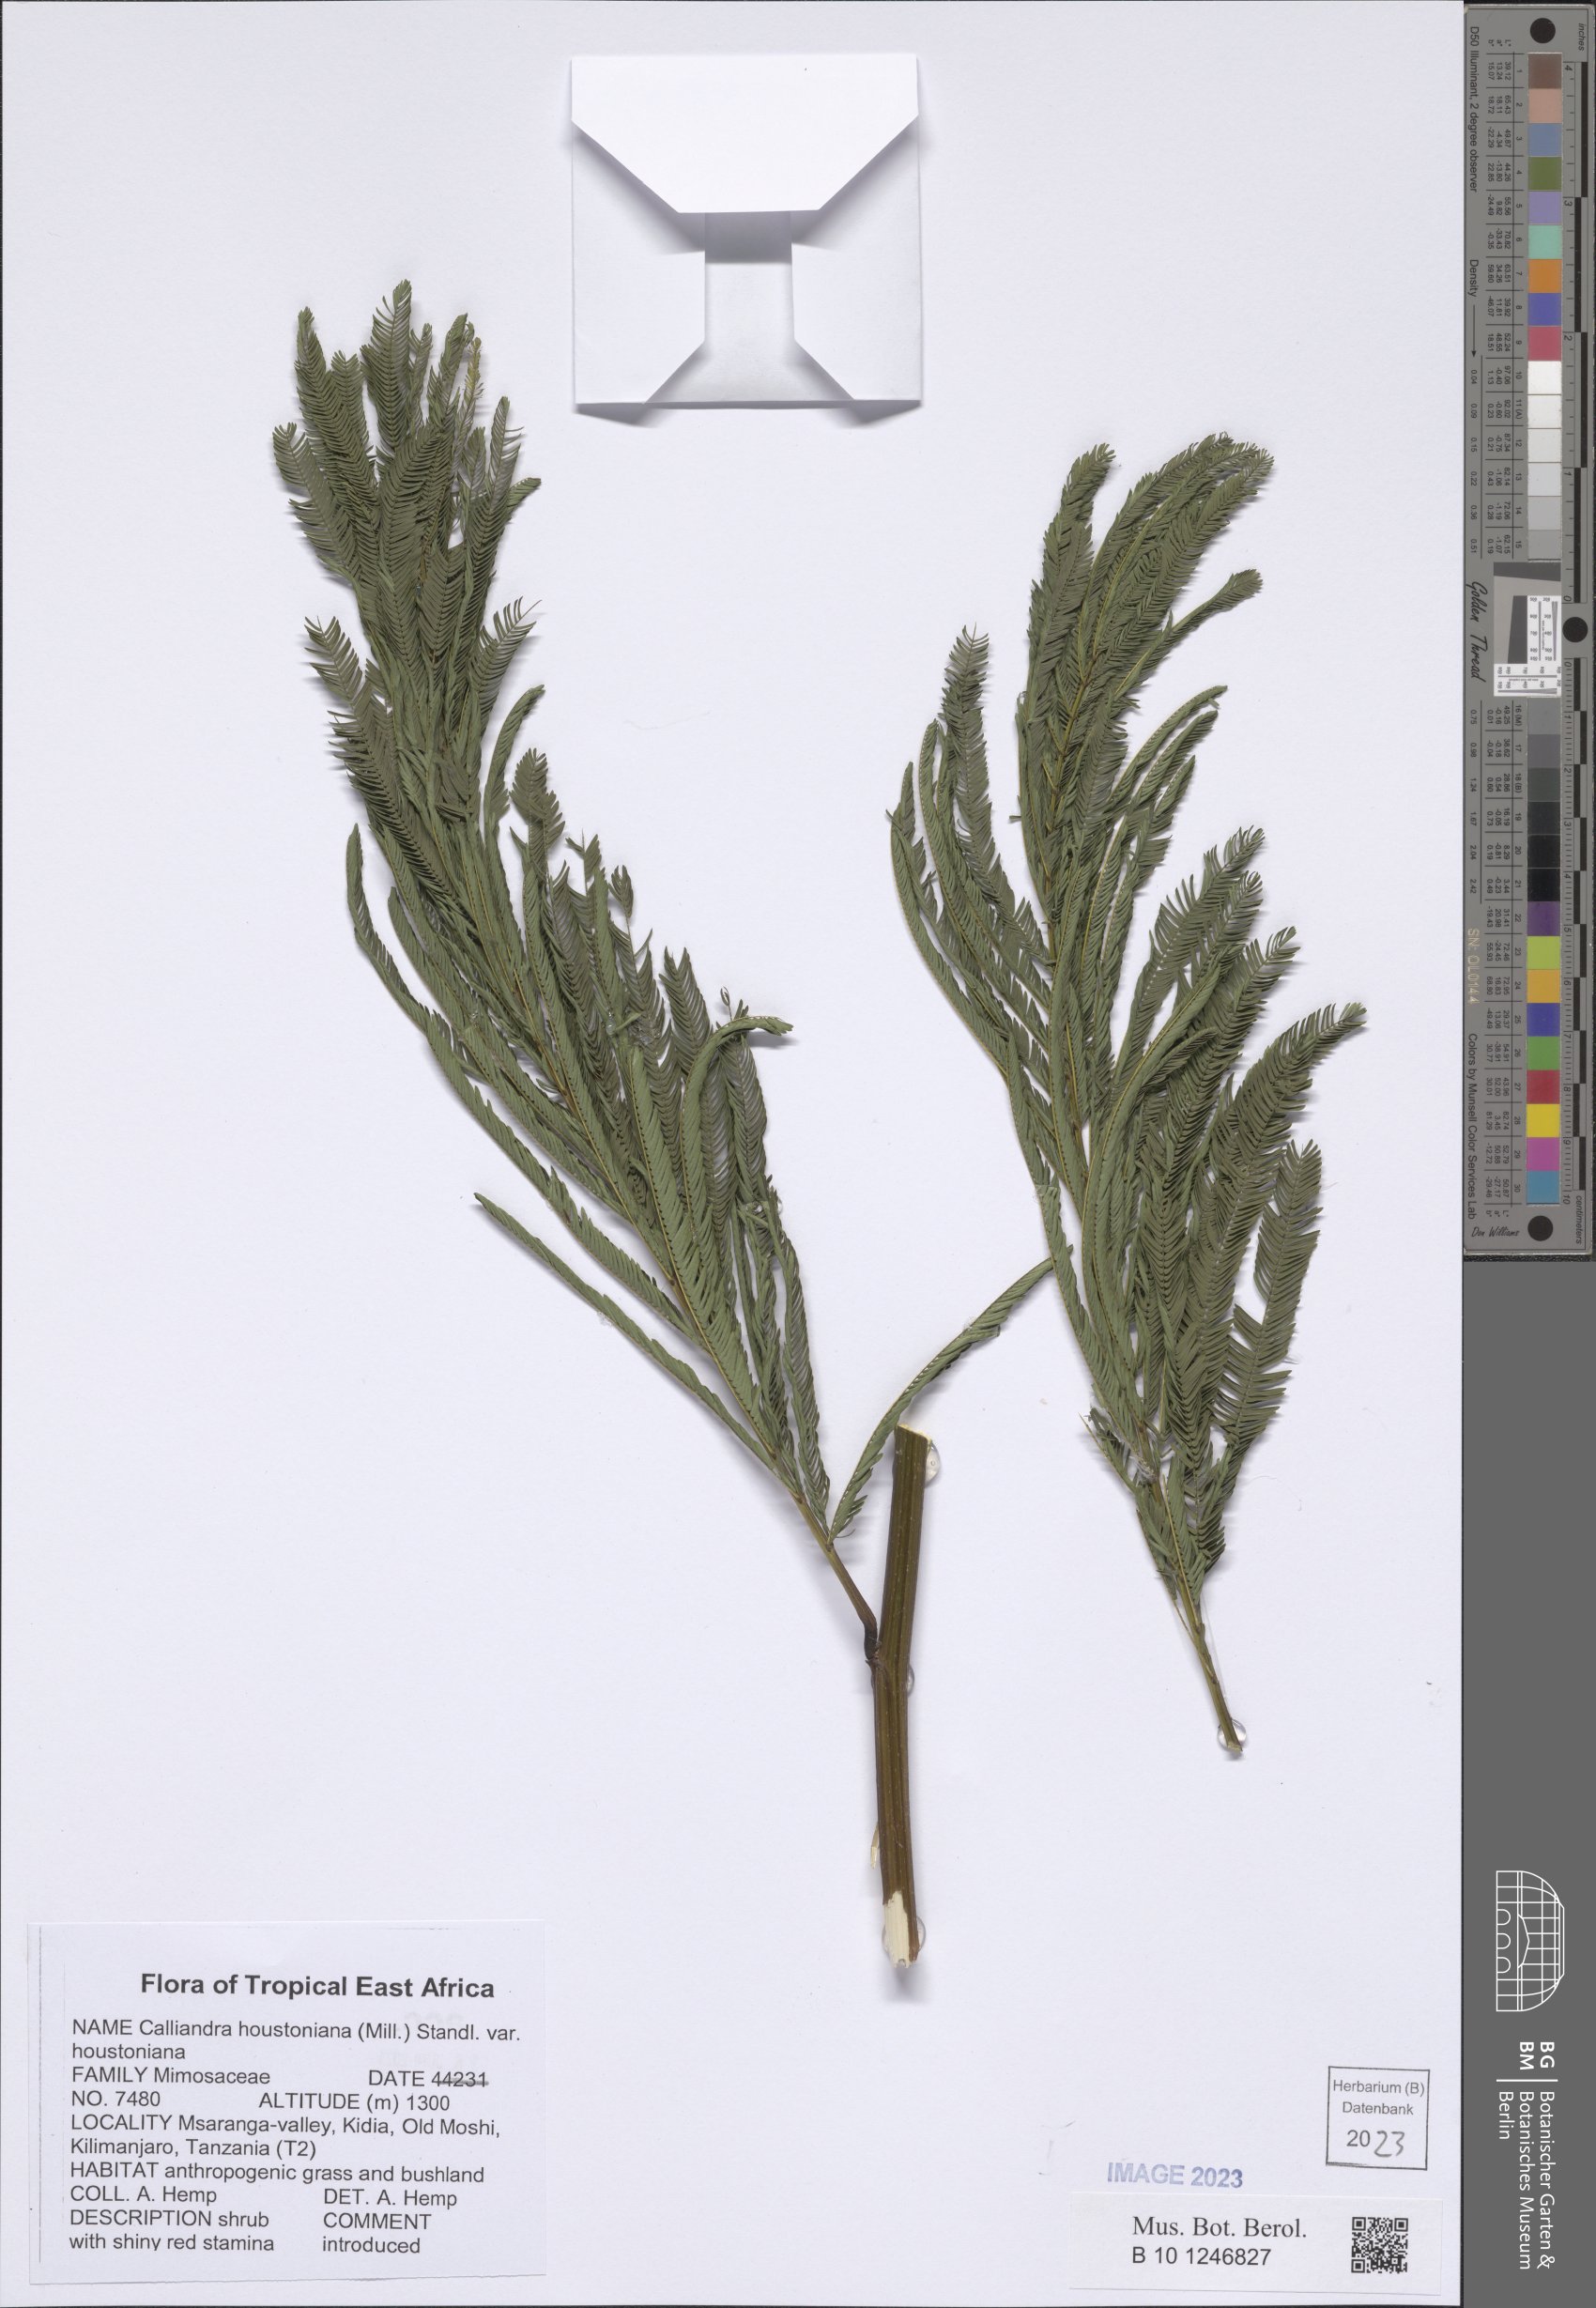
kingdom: Plantae
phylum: Tracheophyta
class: Magnoliopsida
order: Fabales
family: Fabaceae
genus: Calliandra
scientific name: Calliandra houstoniana
